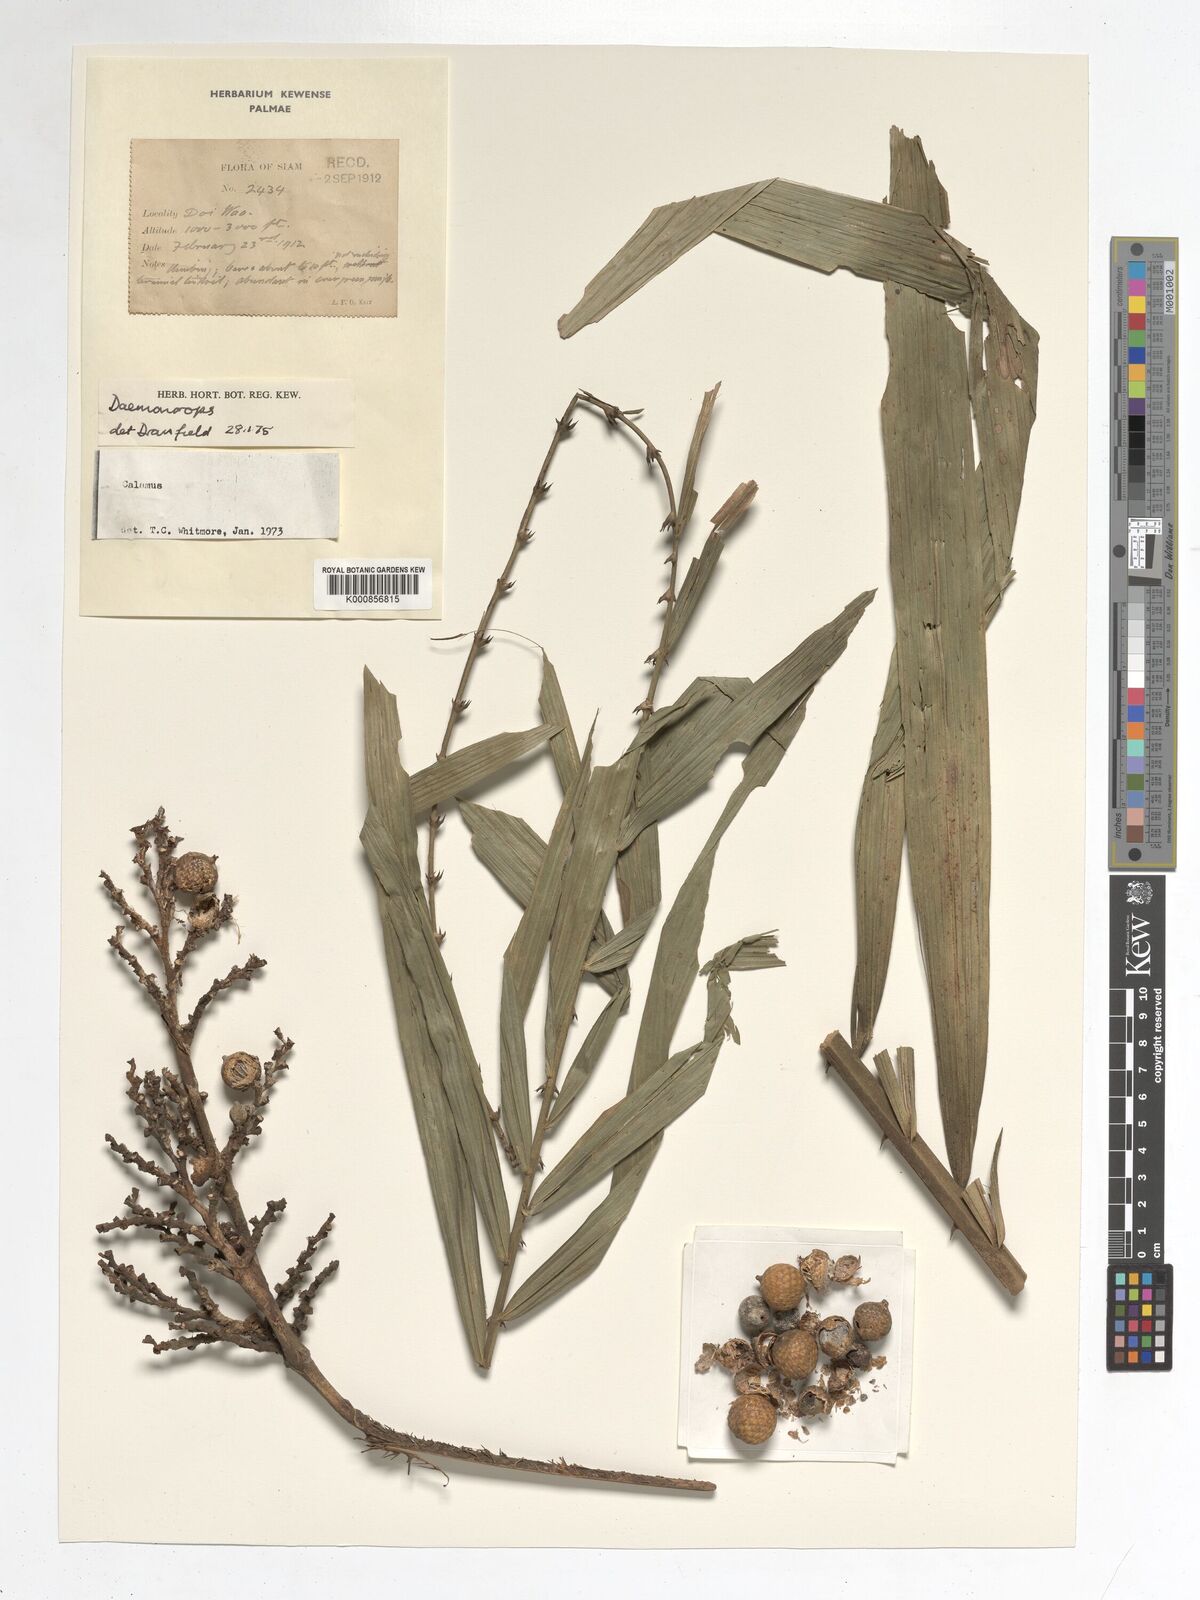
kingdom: Plantae
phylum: Tracheophyta
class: Liliopsida
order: Arecales
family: Arecaceae
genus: Daemonorops
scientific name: Daemonorops
